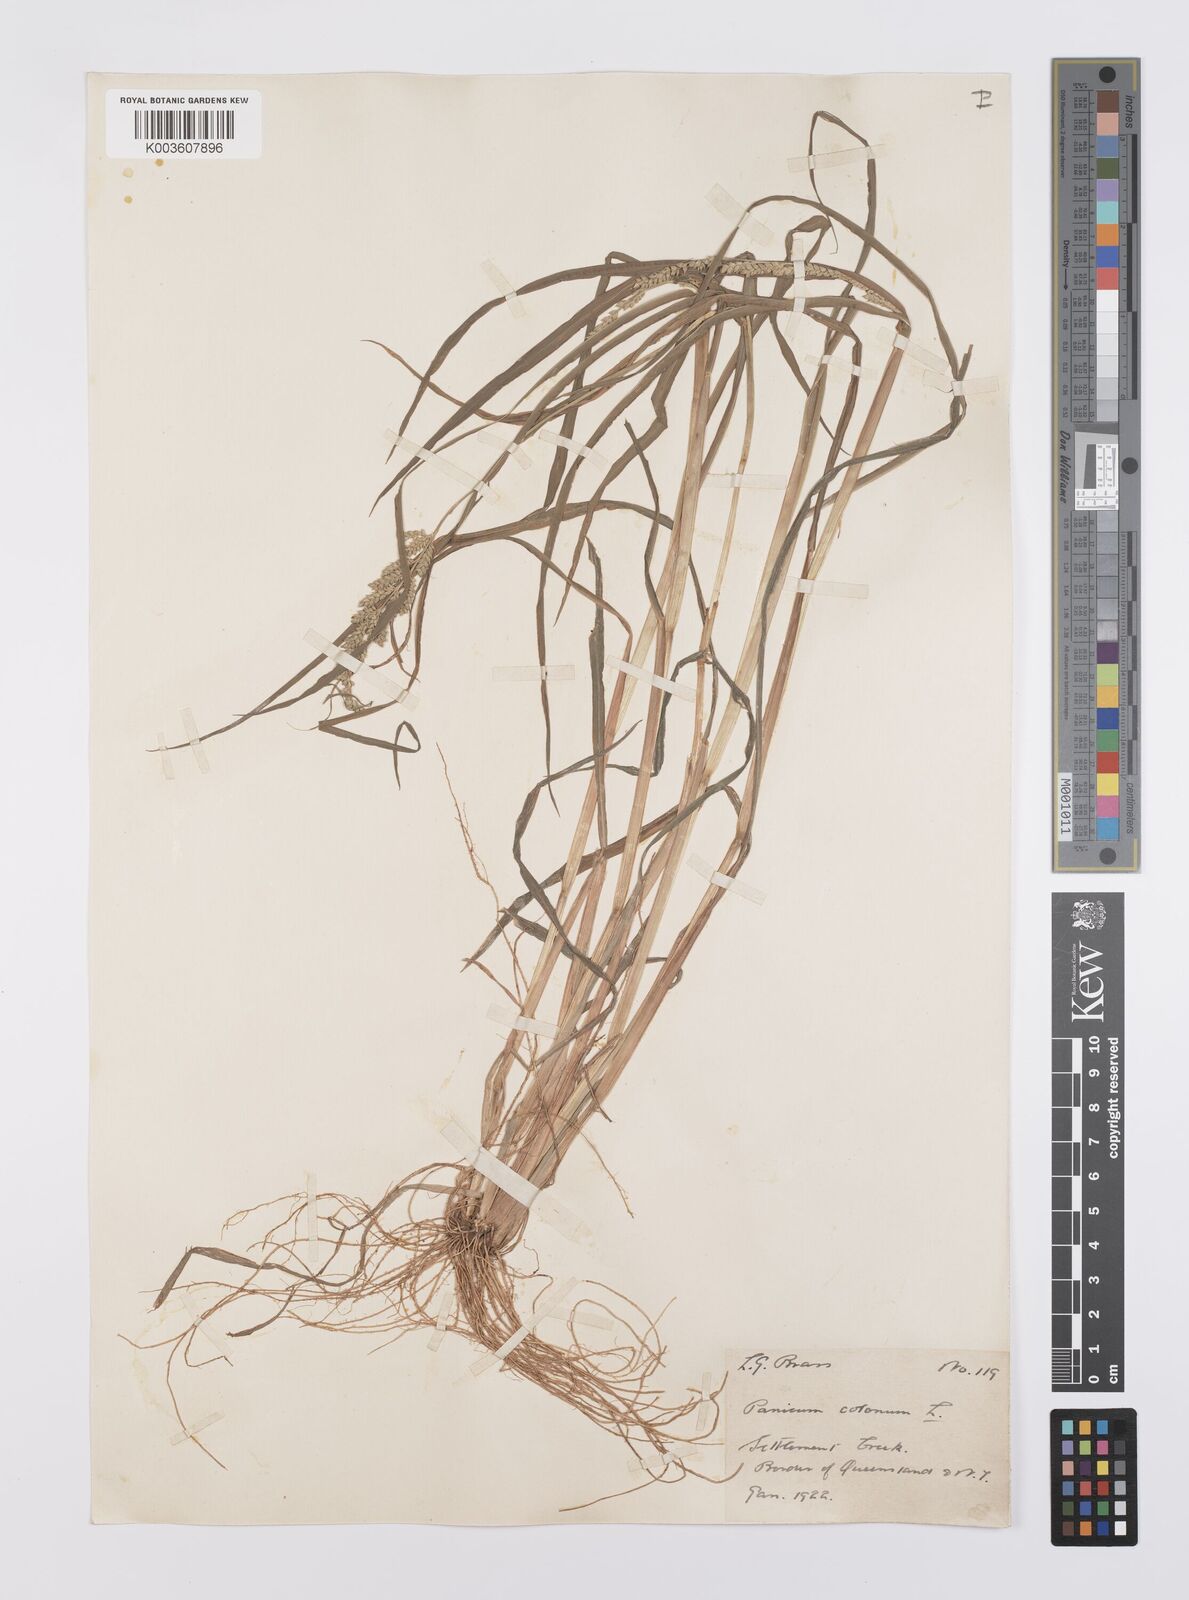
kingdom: Plantae
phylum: Tracheophyta
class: Liliopsida
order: Poales
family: Poaceae
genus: Echinochloa
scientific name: Echinochloa colonum
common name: Jungle rice
